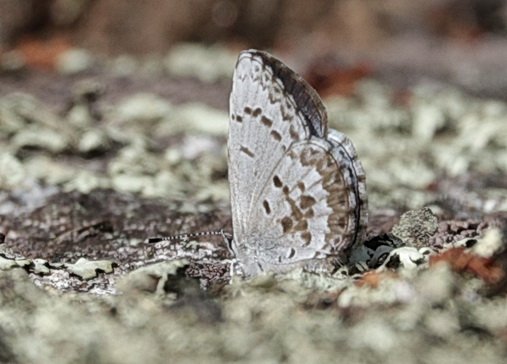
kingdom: Animalia
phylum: Arthropoda
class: Insecta
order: Lepidoptera
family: Lycaenidae
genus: Celastrina
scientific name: Celastrina lucia
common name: Northern Spring Azure
